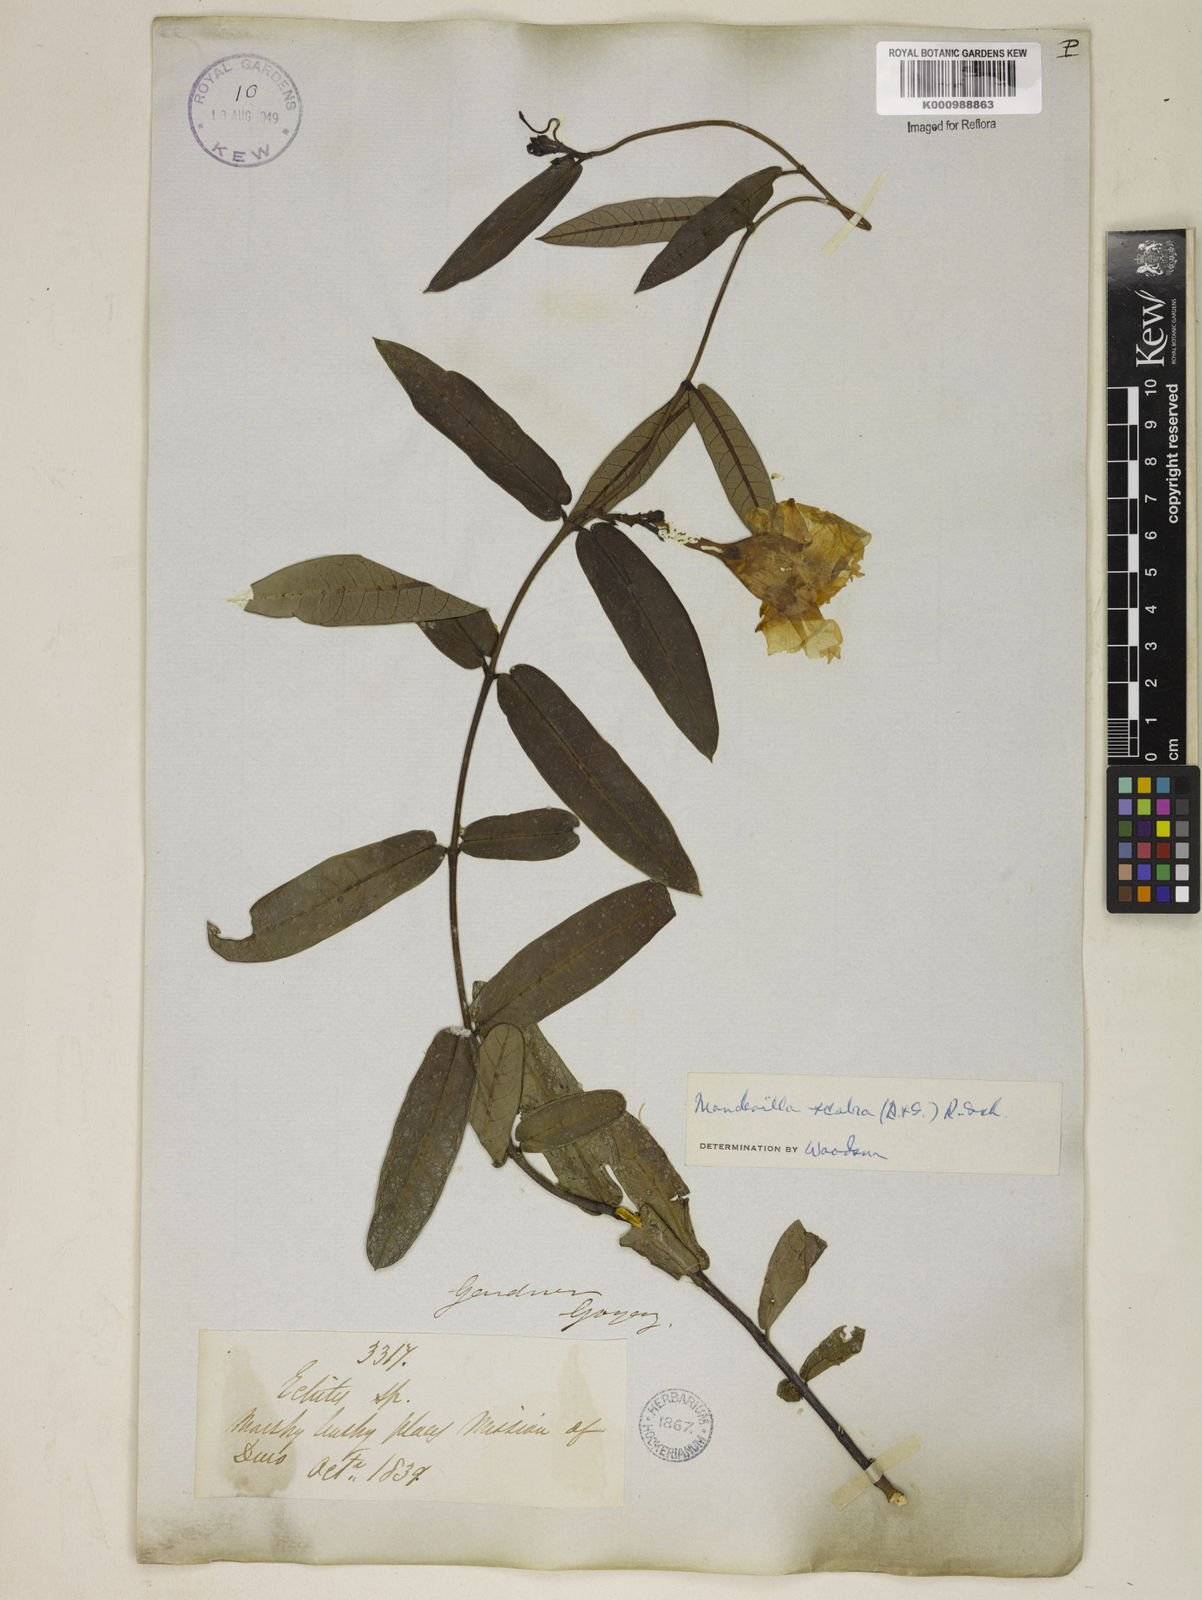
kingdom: Plantae
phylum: Tracheophyta
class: Magnoliopsida
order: Gentianales
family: Apocynaceae
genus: Mandevilla
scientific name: Mandevilla scabra
